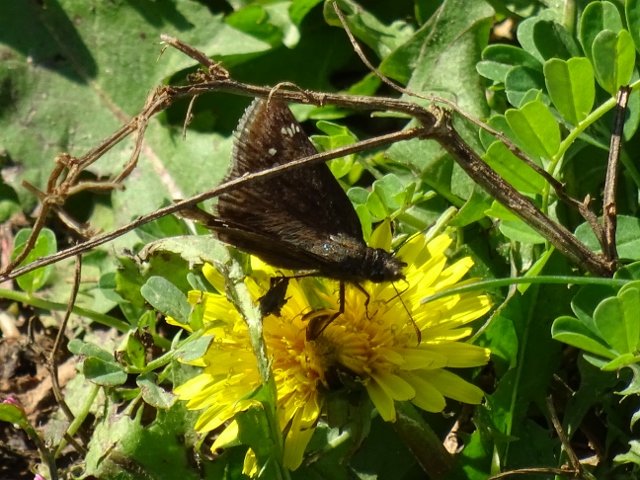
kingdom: Animalia
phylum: Arthropoda
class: Insecta
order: Lepidoptera
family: Hesperiidae
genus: Gesta
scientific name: Gesta
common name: Wild Indigo Duskywing
